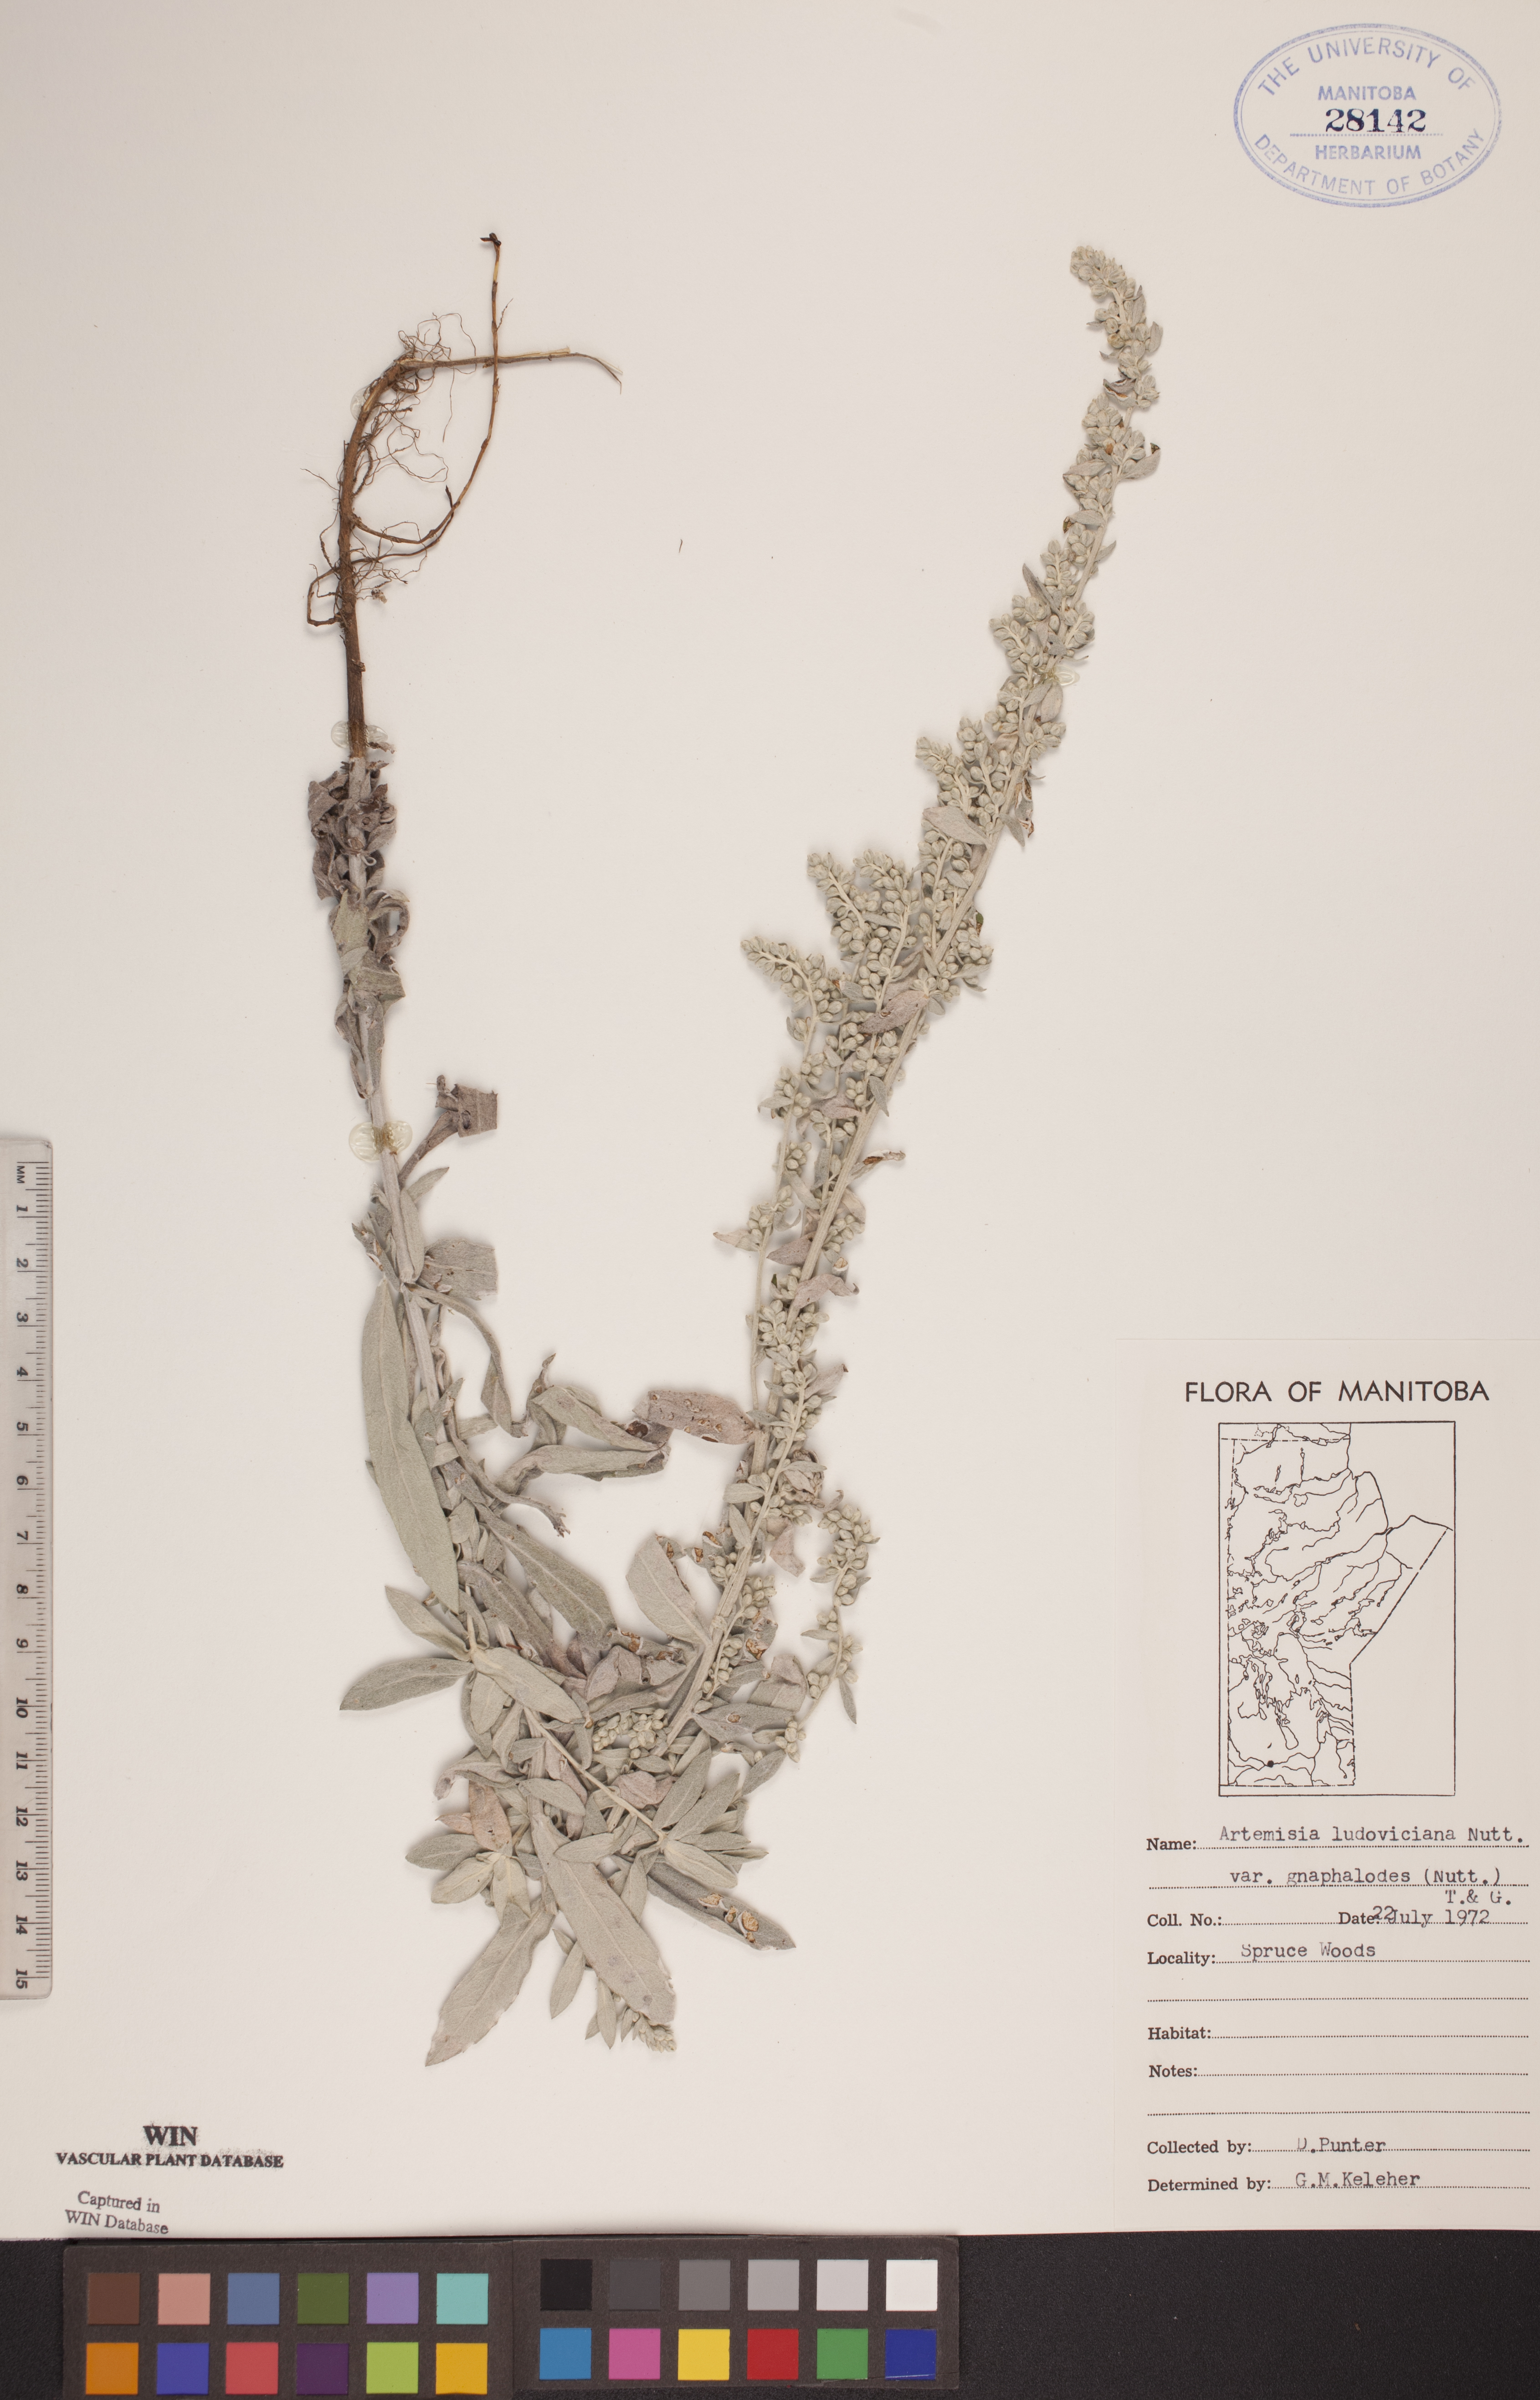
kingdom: Plantae
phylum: Tracheophyta
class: Magnoliopsida
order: Asterales
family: Asteraceae
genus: Artemisia
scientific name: Artemisia ludoviciana
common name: Western mugwort
